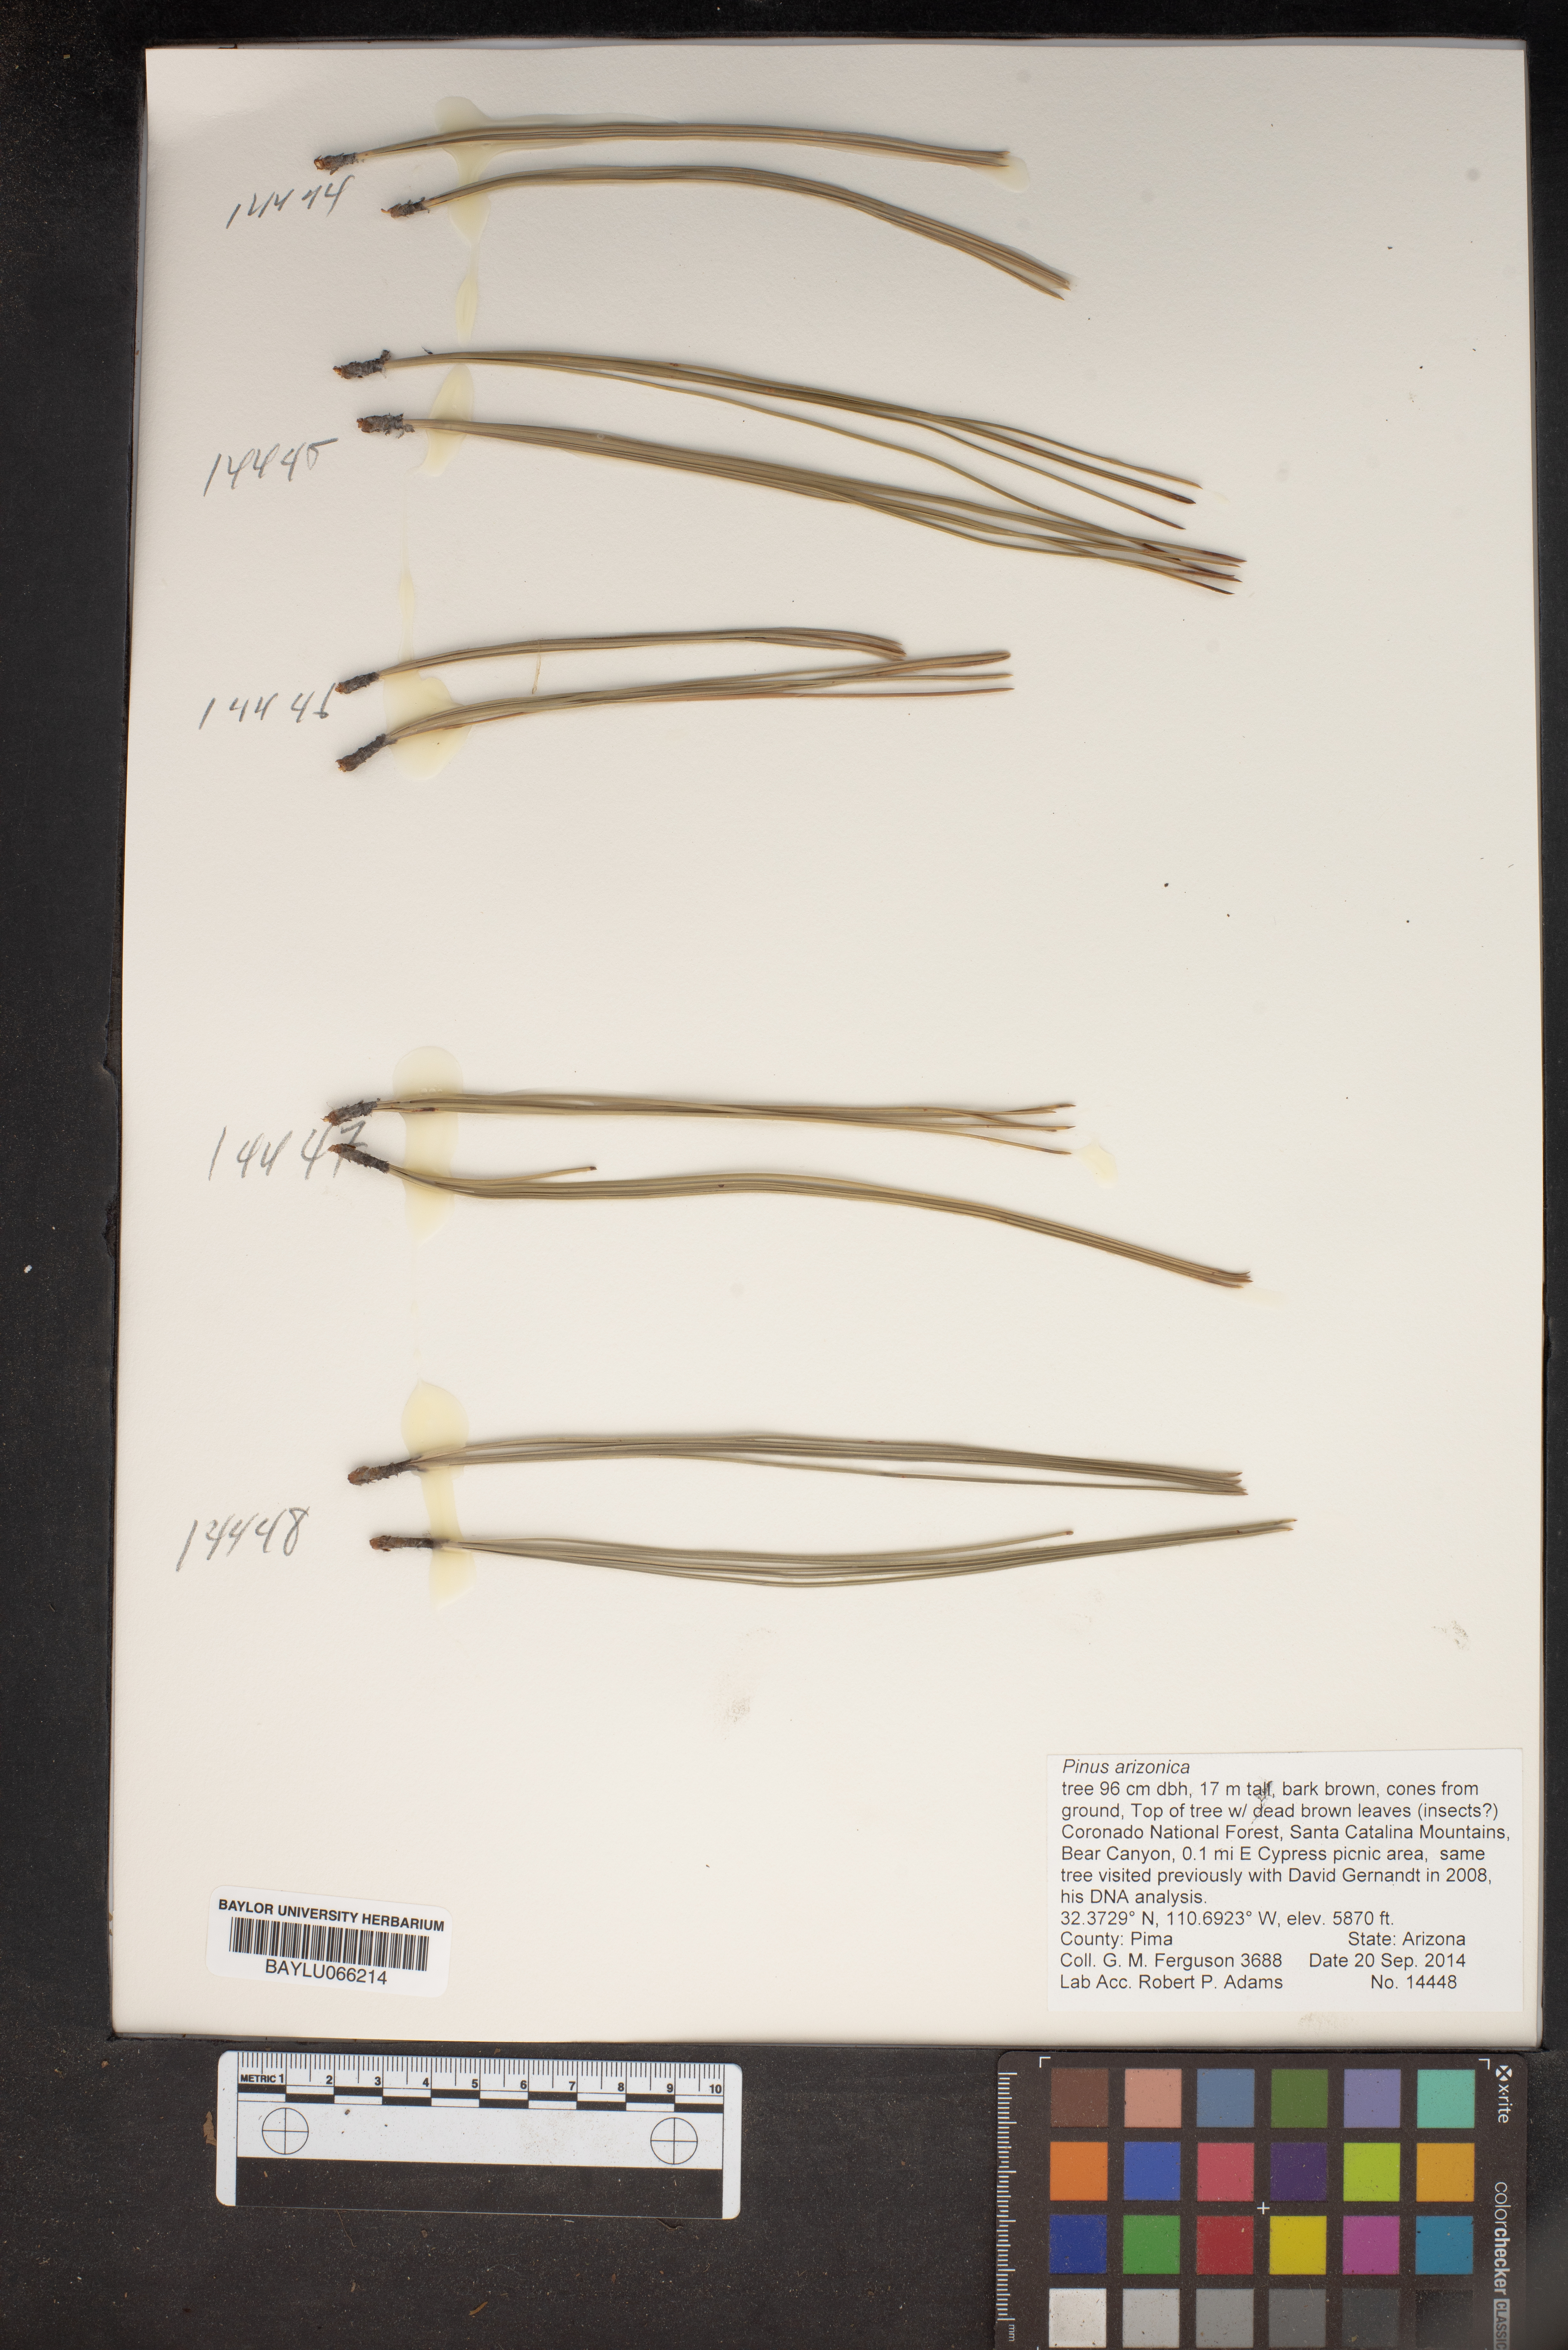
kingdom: Plantae
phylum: Tracheophyta
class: Pinopsida
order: Pinales
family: Pinaceae
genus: Pinus
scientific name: Pinus arizonica
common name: Arizona pine
